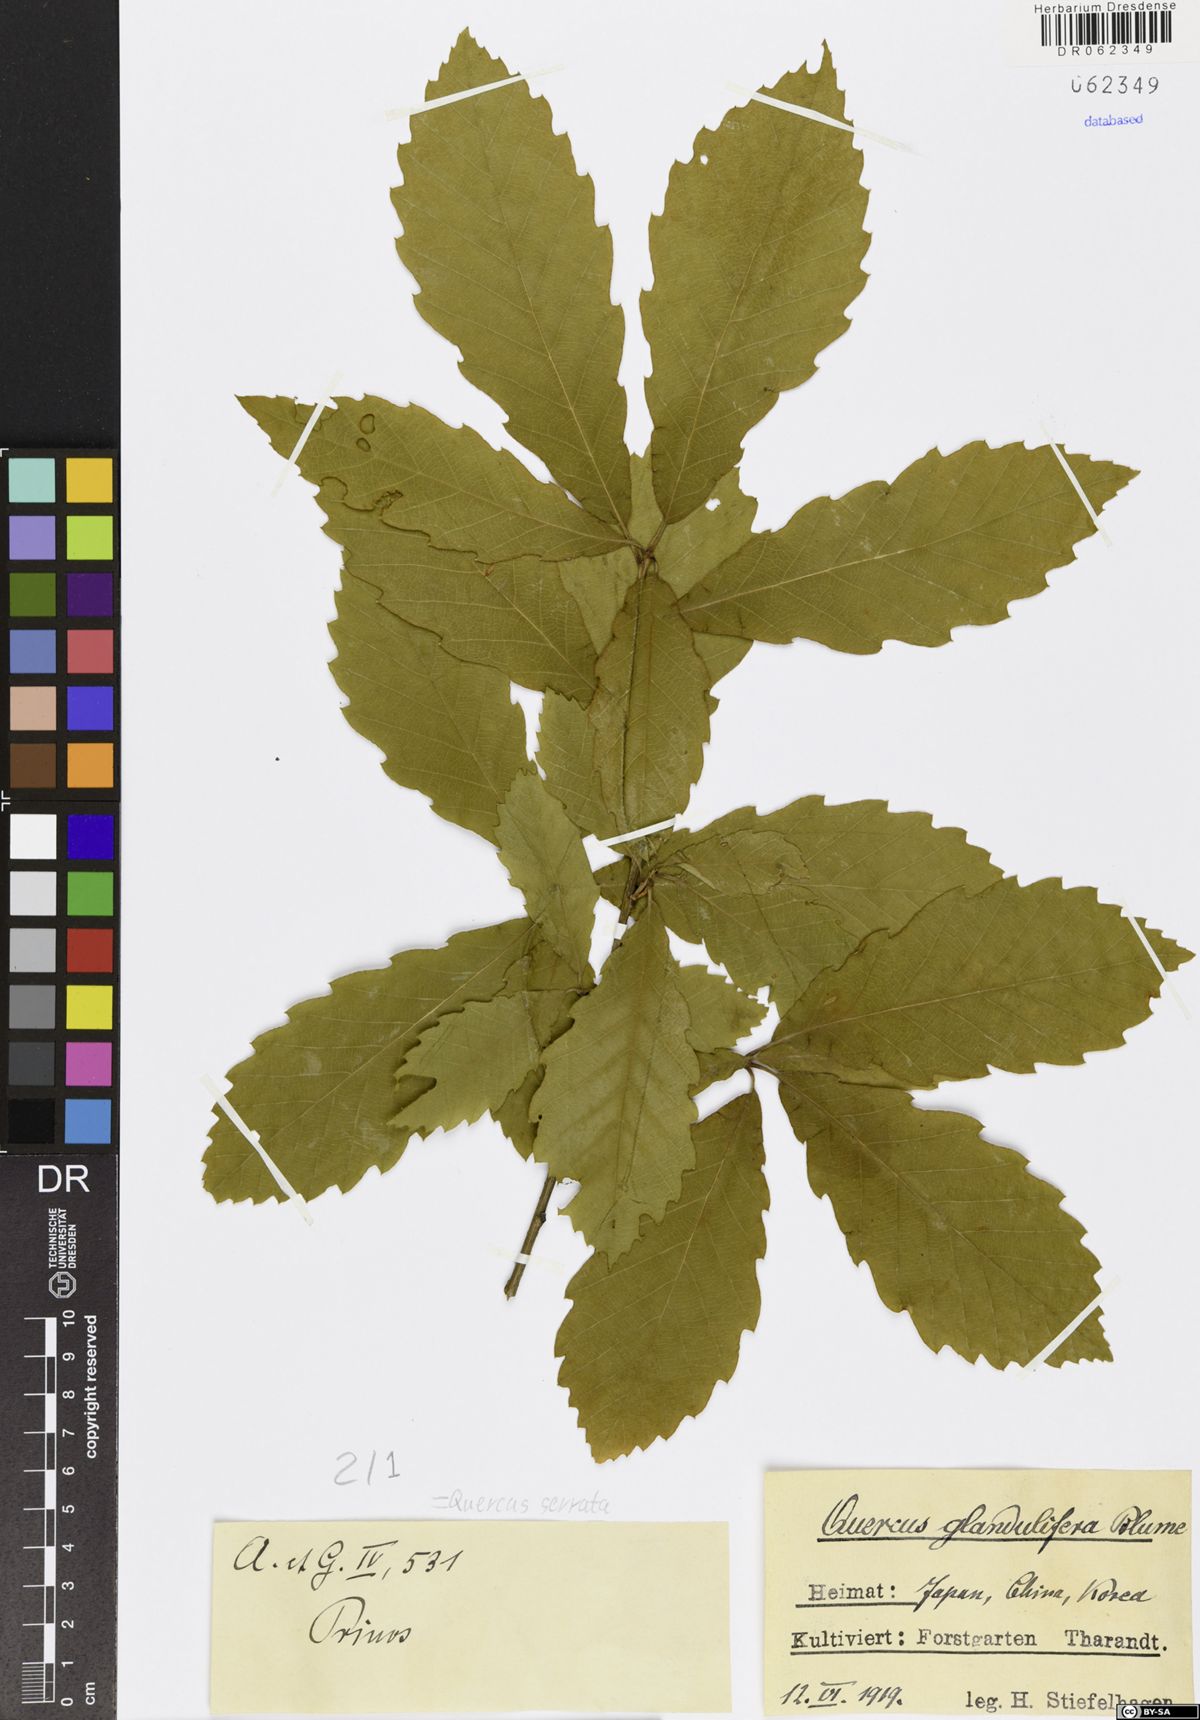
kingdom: Plantae
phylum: Tracheophyta
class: Magnoliopsida
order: Fagales
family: Fagaceae
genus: Quercus
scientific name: Quercus serrata
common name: Bao li
